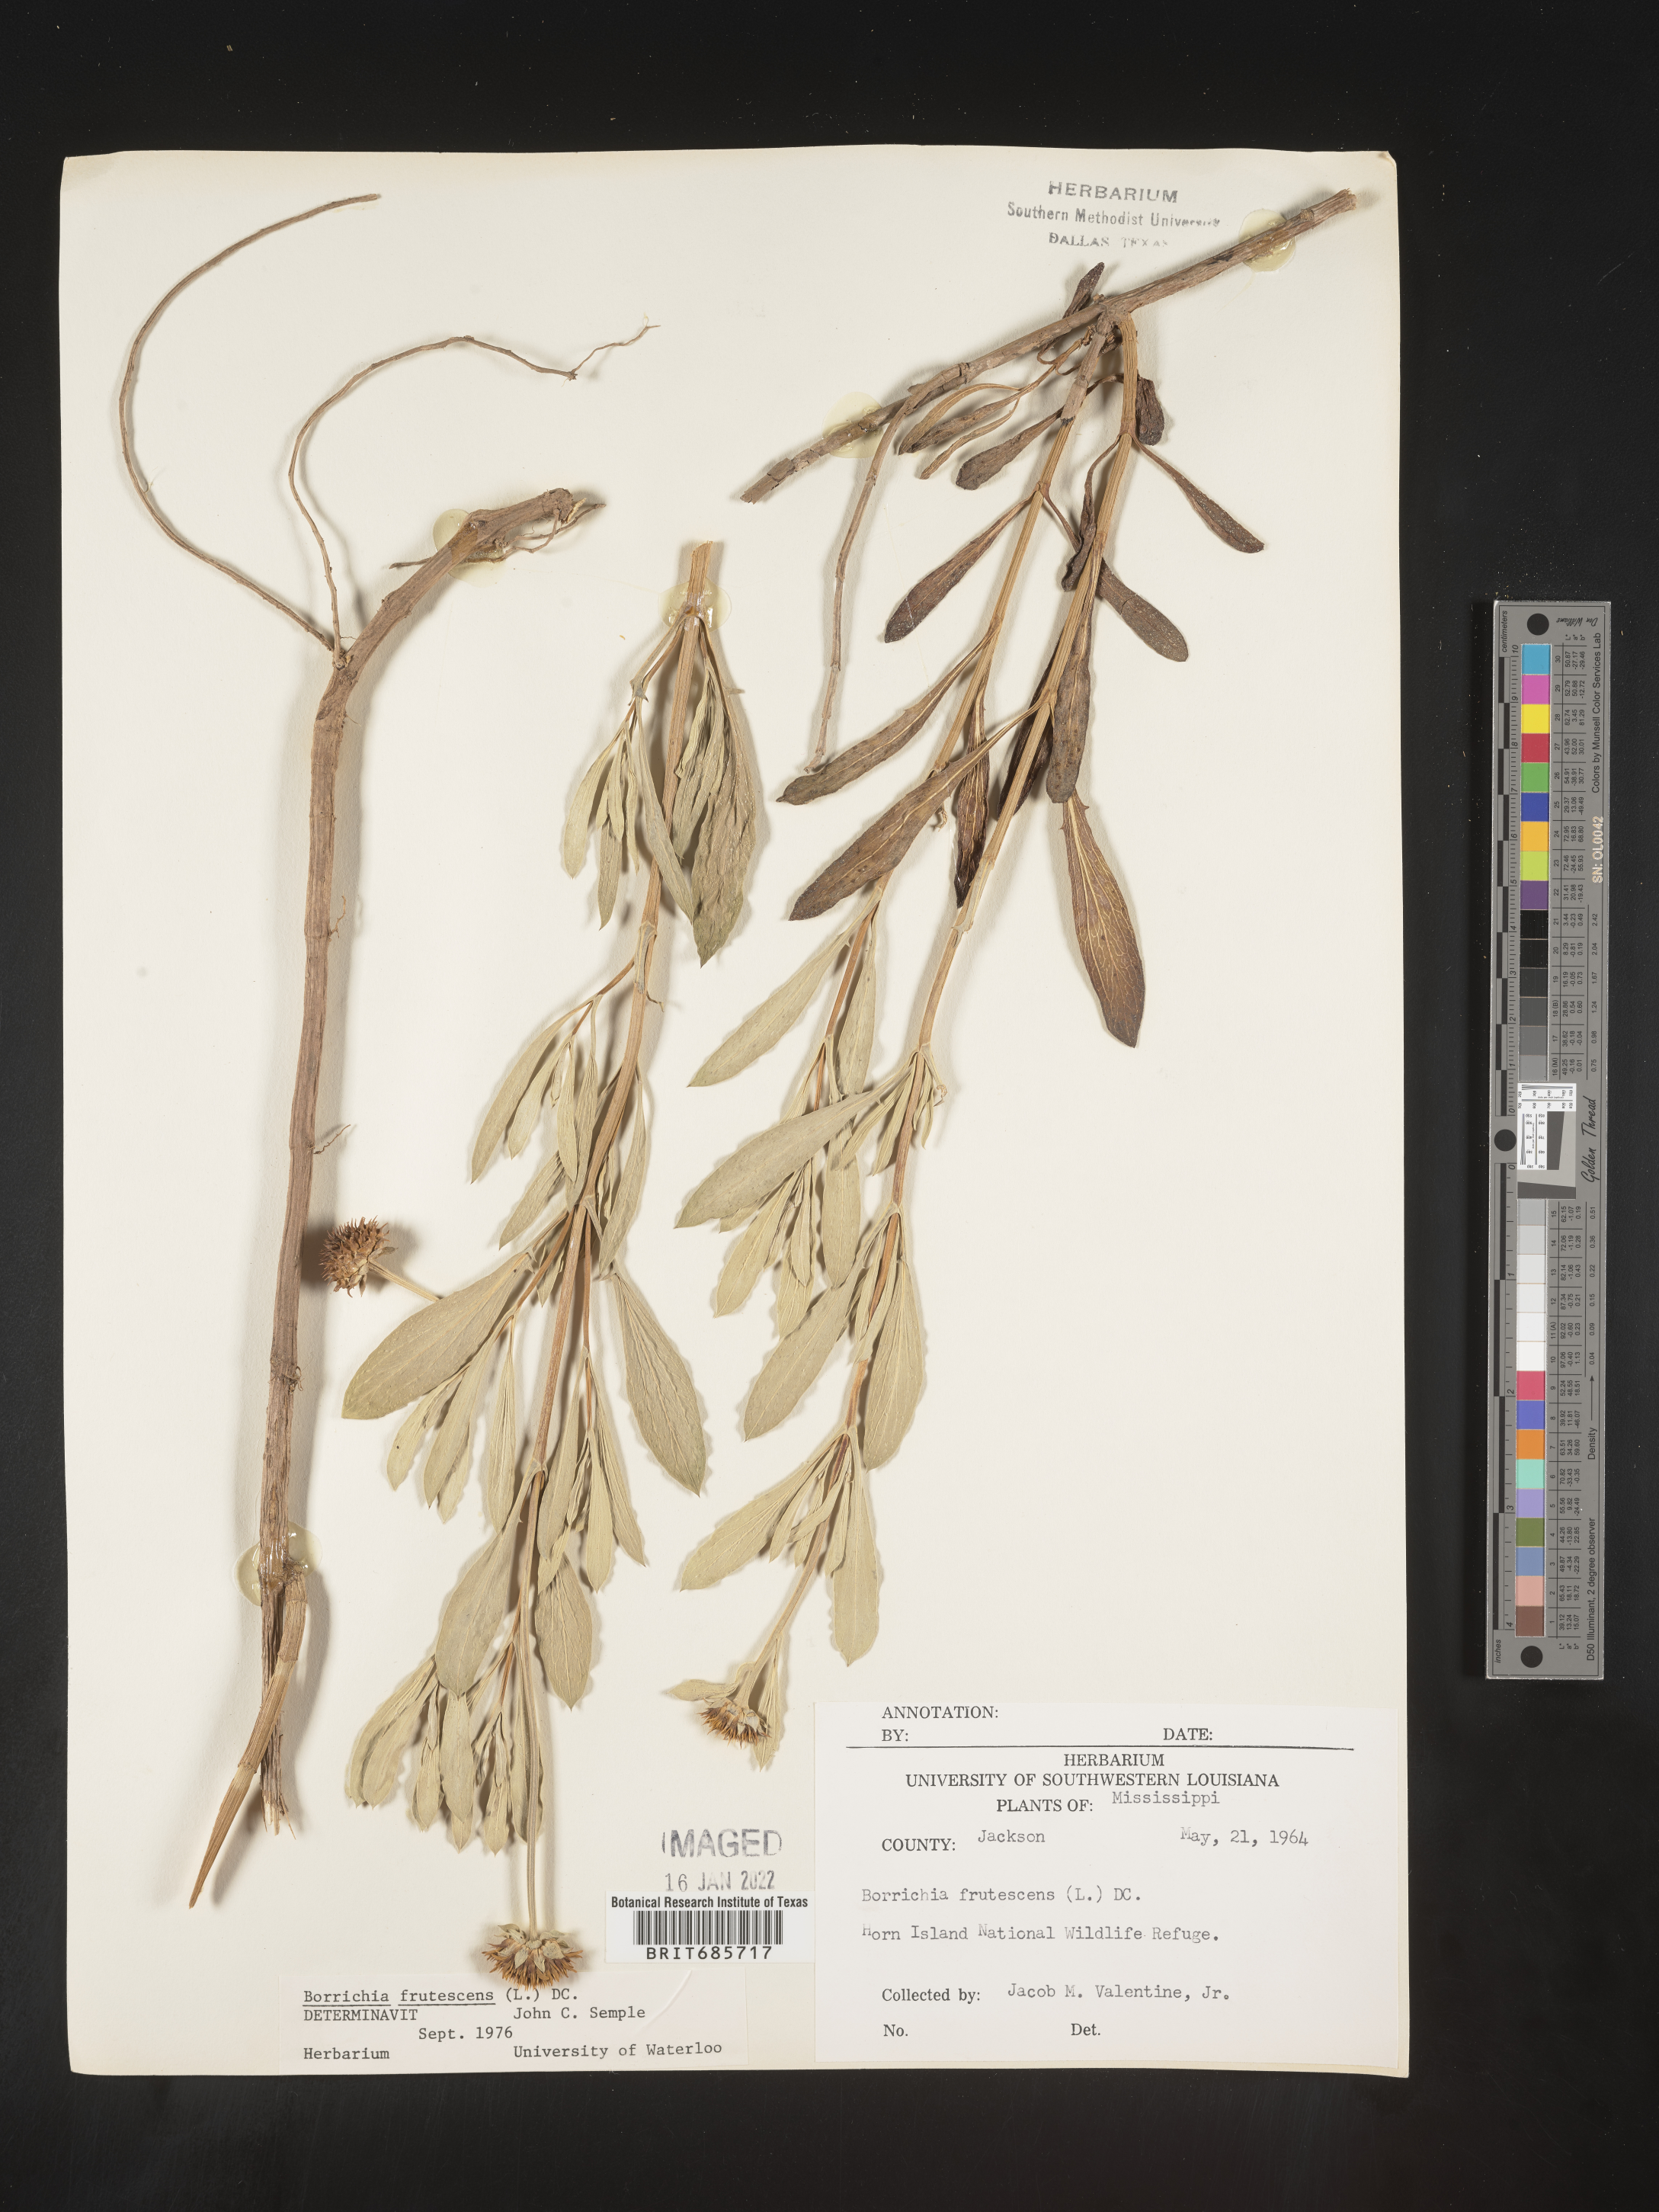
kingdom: Plantae
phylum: Tracheophyta
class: Magnoliopsida
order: Asterales
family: Asteraceae
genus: Borrichia
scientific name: Borrichia frutescens
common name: Sea oxeye
